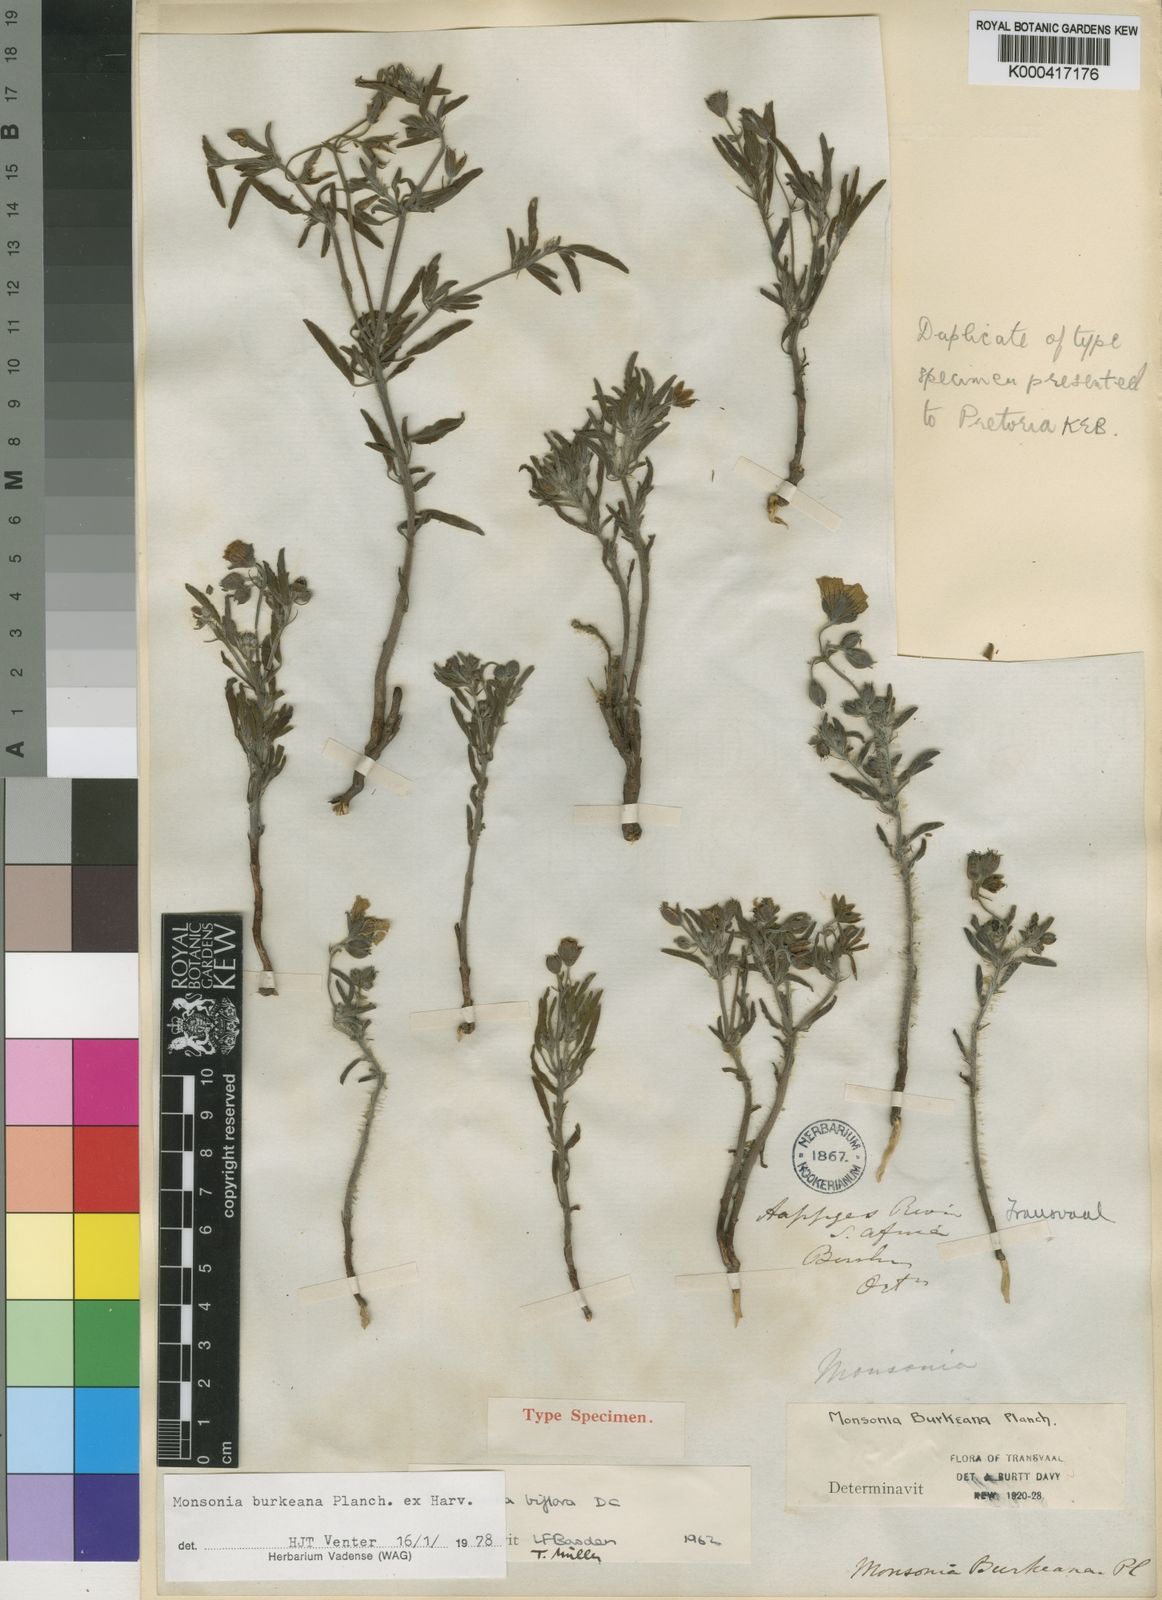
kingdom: Plantae
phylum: Tracheophyta
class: Magnoliopsida
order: Geraniales
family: Geraniaceae
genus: Monsonia
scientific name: Monsonia biflora
